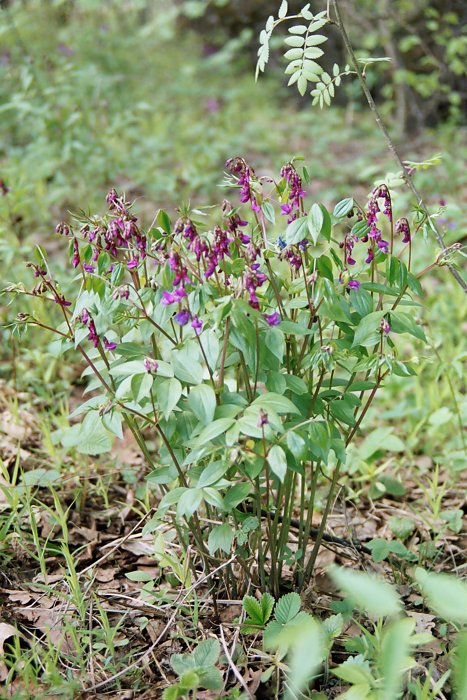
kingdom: Plantae
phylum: Tracheophyta
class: Magnoliopsida
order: Fabales
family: Fabaceae
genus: Lathyrus
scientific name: Lathyrus vernus
